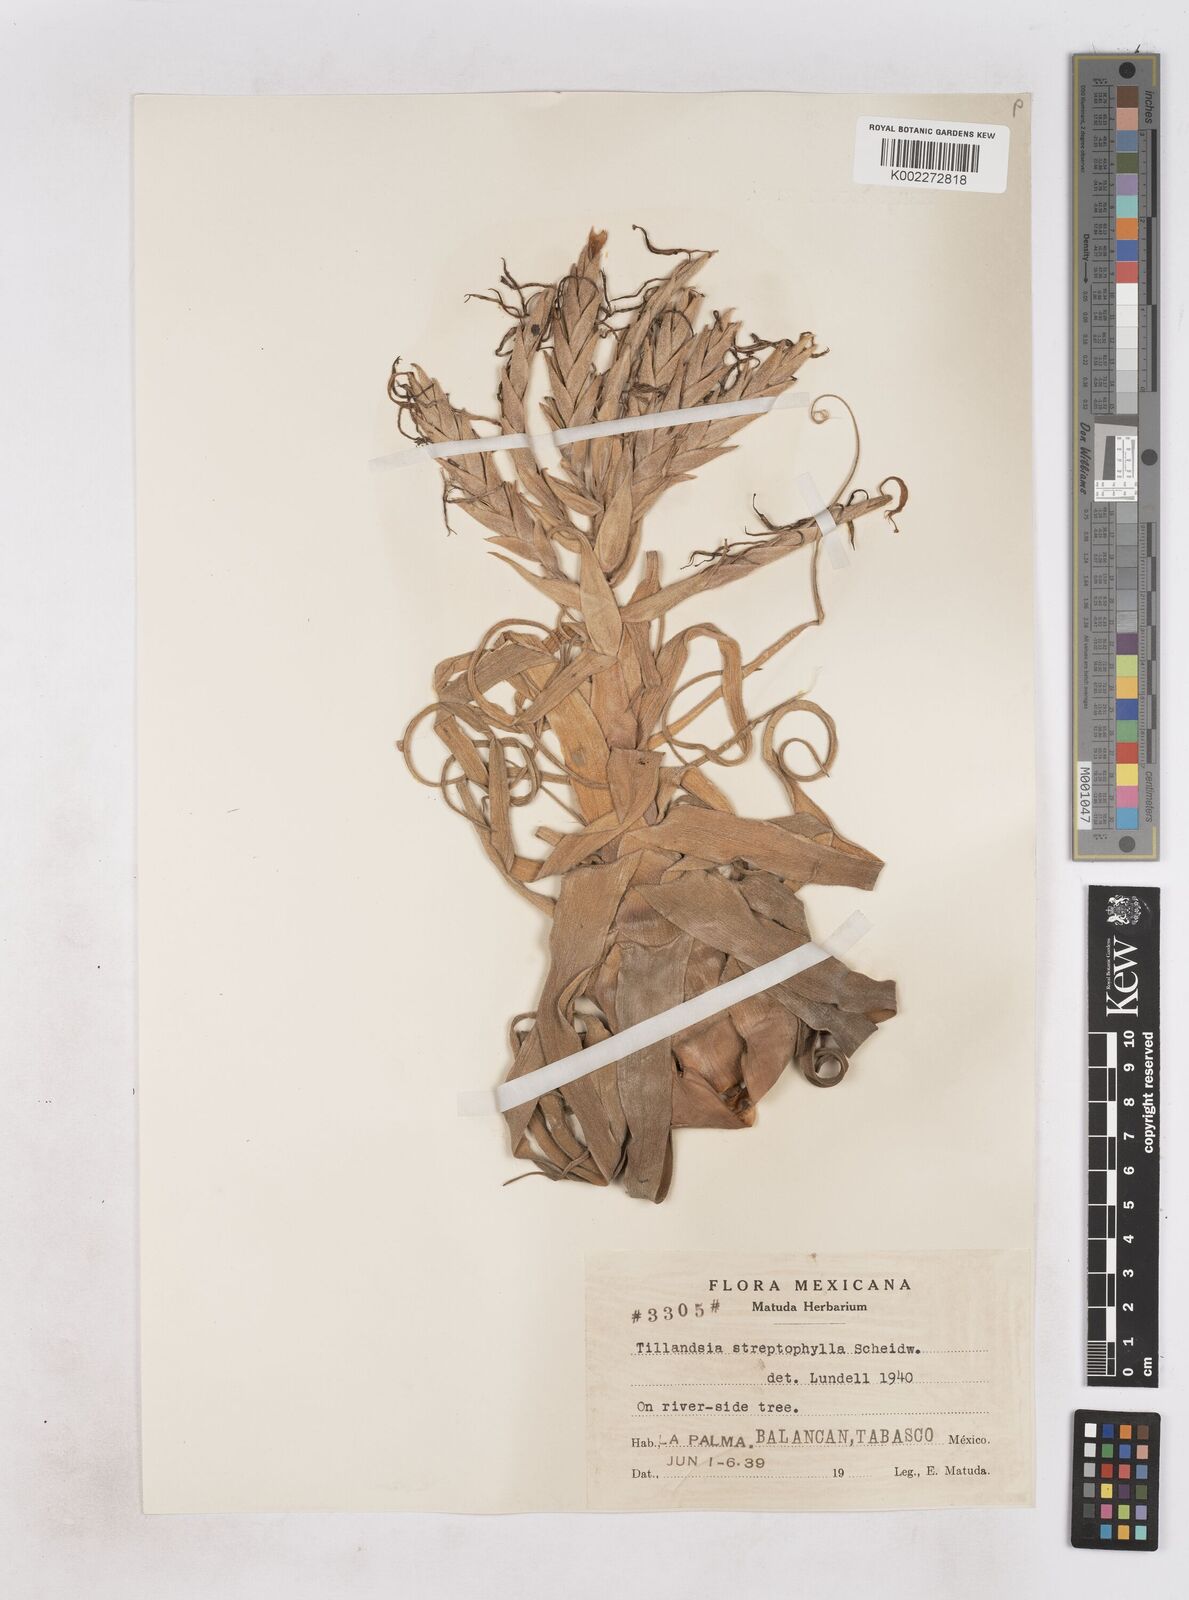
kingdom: Plantae
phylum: Tracheophyta
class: Liliopsida
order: Poales
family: Bromeliaceae
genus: Tillandsia
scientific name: Tillandsia streptophylla
